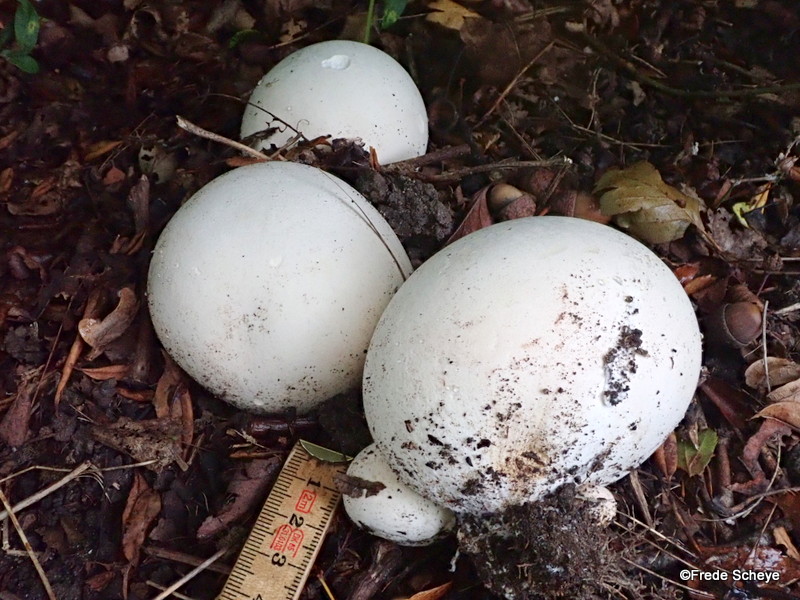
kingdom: Fungi
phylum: Basidiomycota
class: Agaricomycetes
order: Agaricales
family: Lycoperdaceae
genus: Calvatia
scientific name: Calvatia gigantea
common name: kæmpestøvbold
